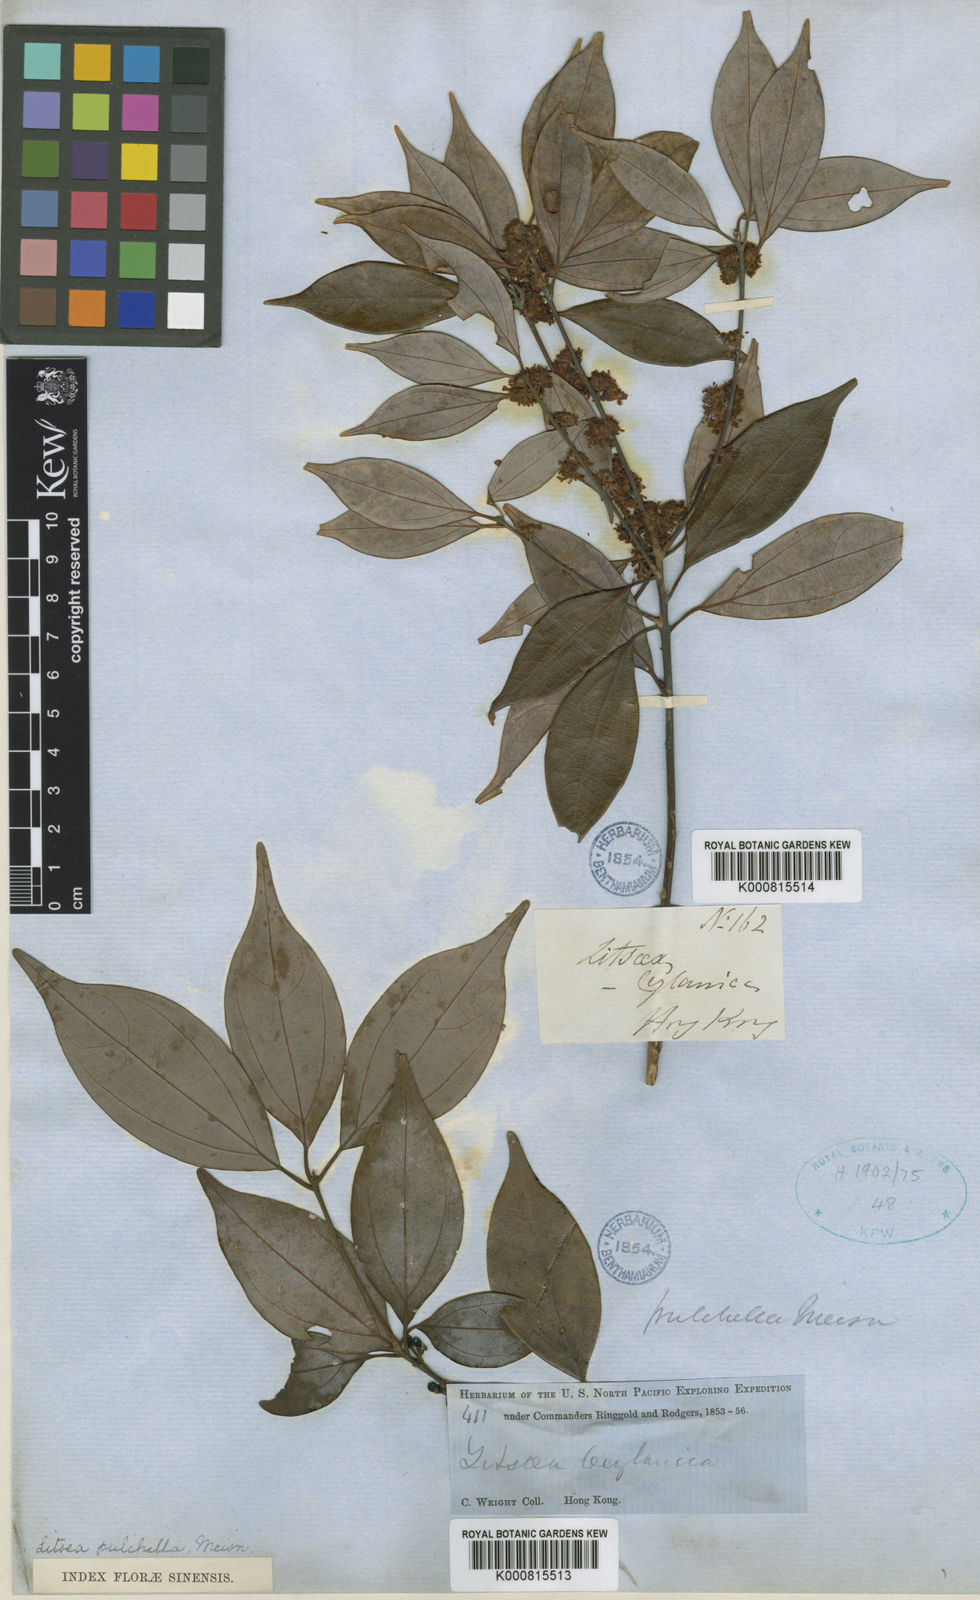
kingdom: Plantae
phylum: Tracheophyta
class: Magnoliopsida
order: Laurales
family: Lauraceae
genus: Neolitsea
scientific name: Neolitsea pulchella
